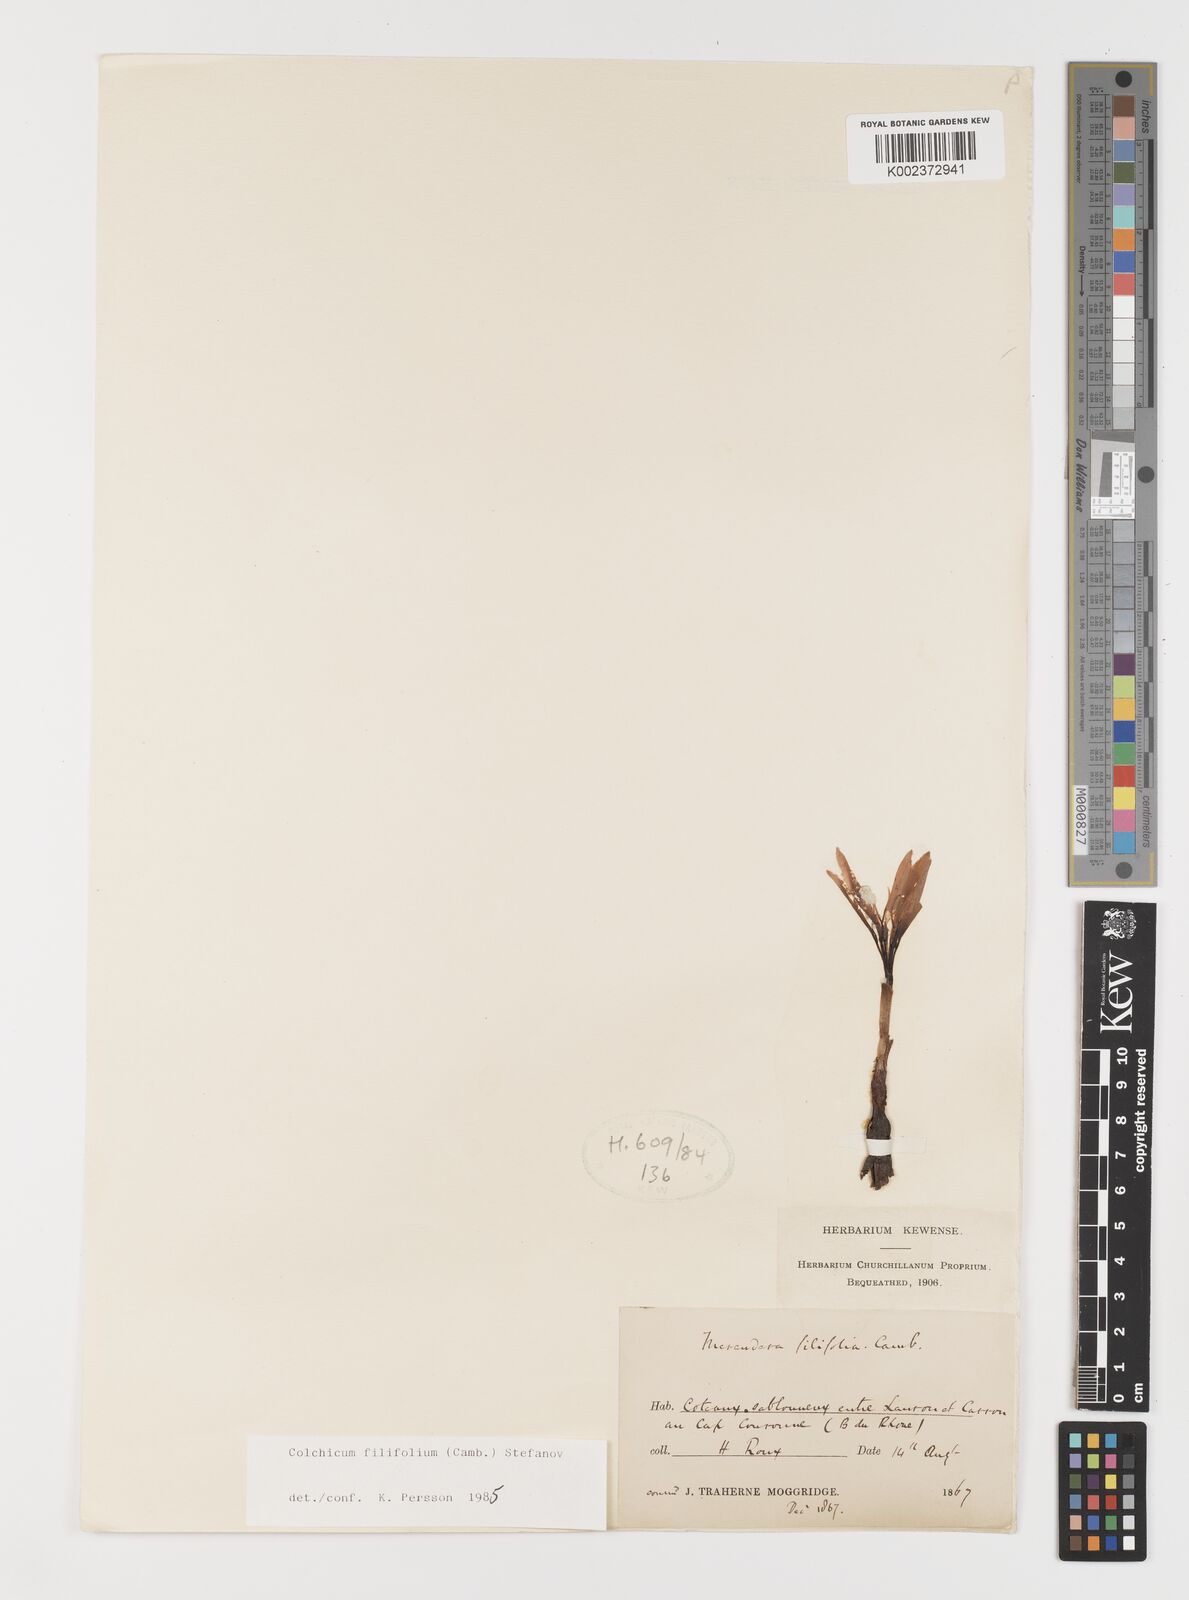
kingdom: Plantae
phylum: Tracheophyta
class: Liliopsida
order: Liliales
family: Colchicaceae
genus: Colchicum
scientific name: Colchicum filifolium
